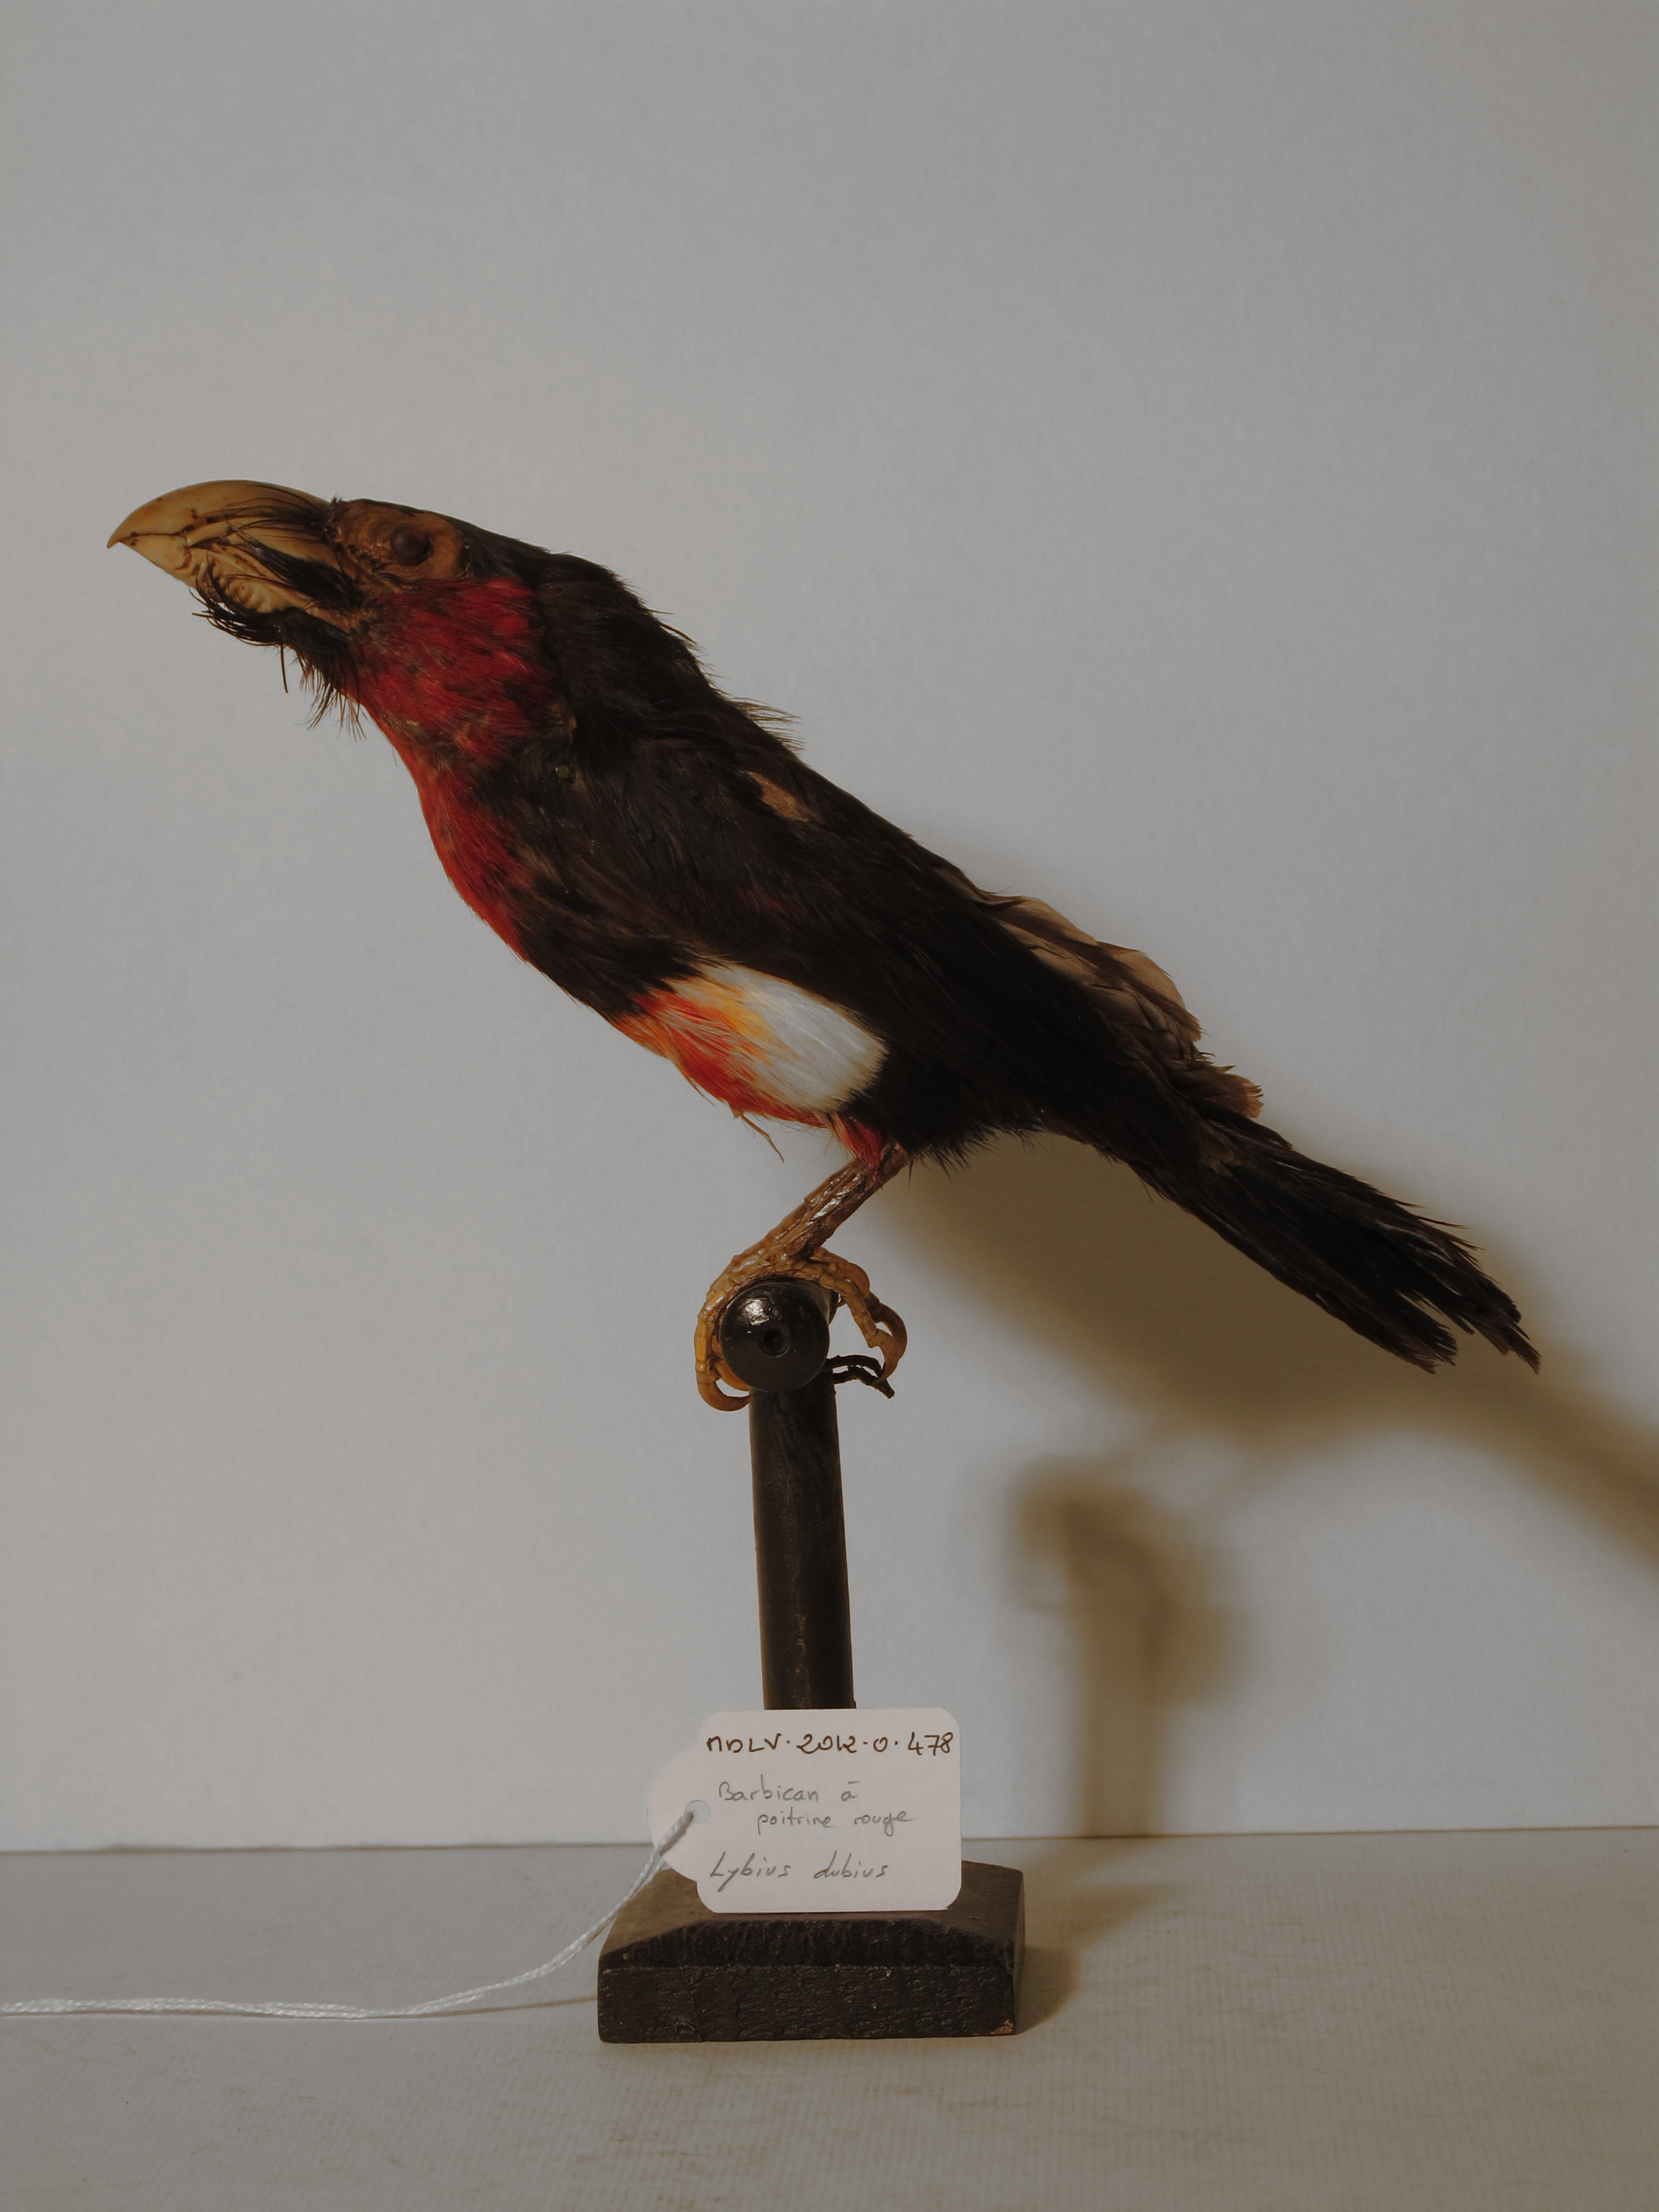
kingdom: Animalia
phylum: Chordata
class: Aves
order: Piciformes
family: Lybiidae
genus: Lybius
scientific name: Lybius dubius
